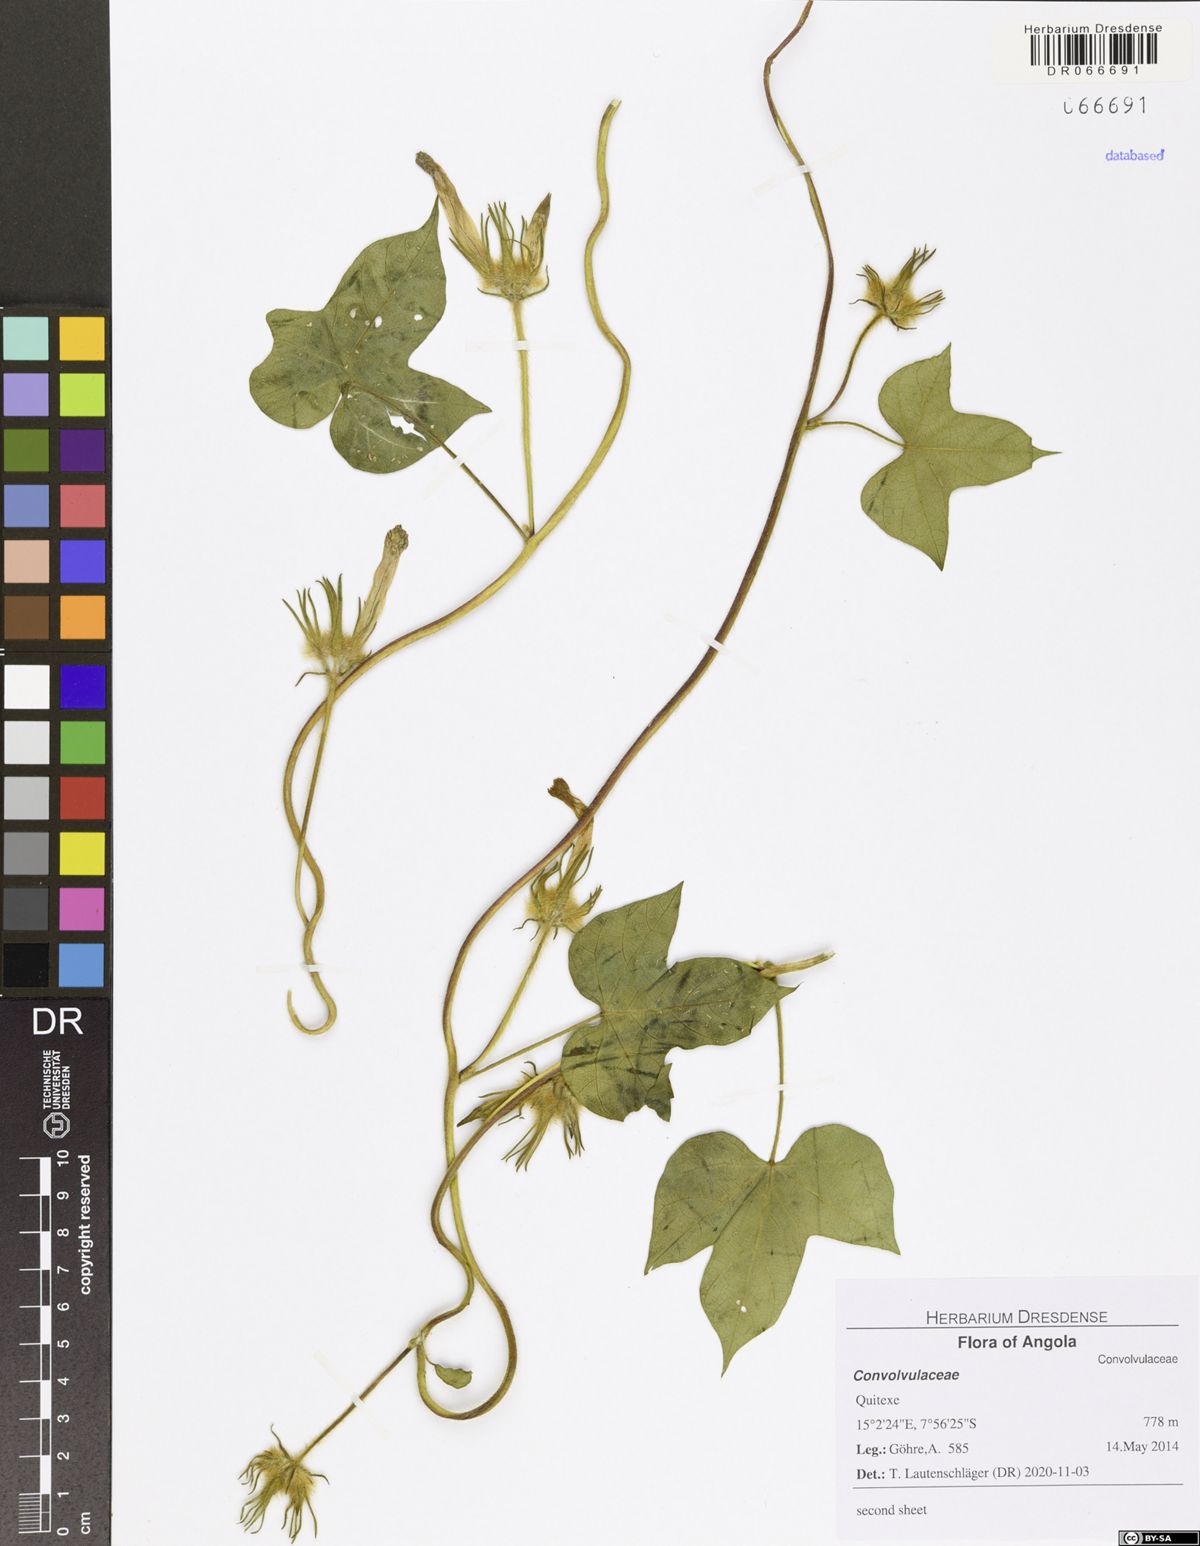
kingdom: Plantae
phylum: Tracheophyta
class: Magnoliopsida
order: Solanales
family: Convolvulaceae
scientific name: Convolvulaceae
